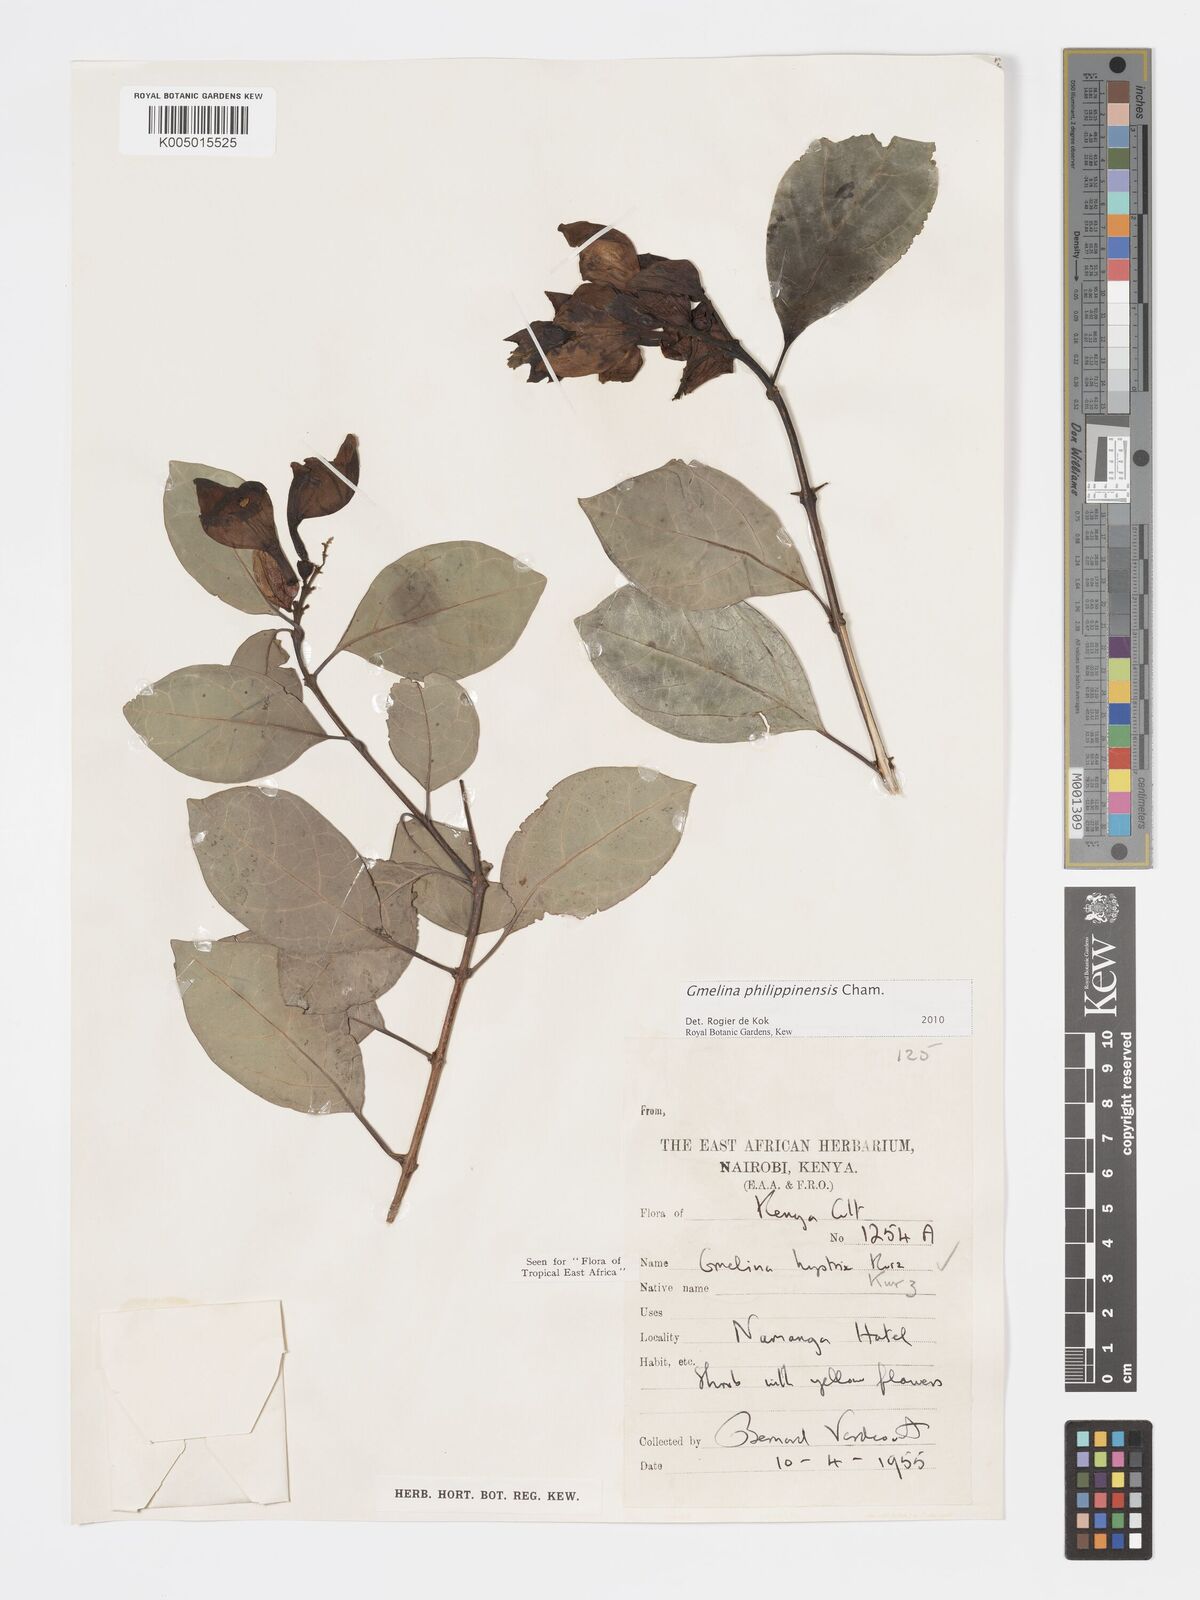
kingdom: Plantae
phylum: Tracheophyta
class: Magnoliopsida
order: Lamiales
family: Lamiaceae
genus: Gmelina
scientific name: Gmelina philippensis
